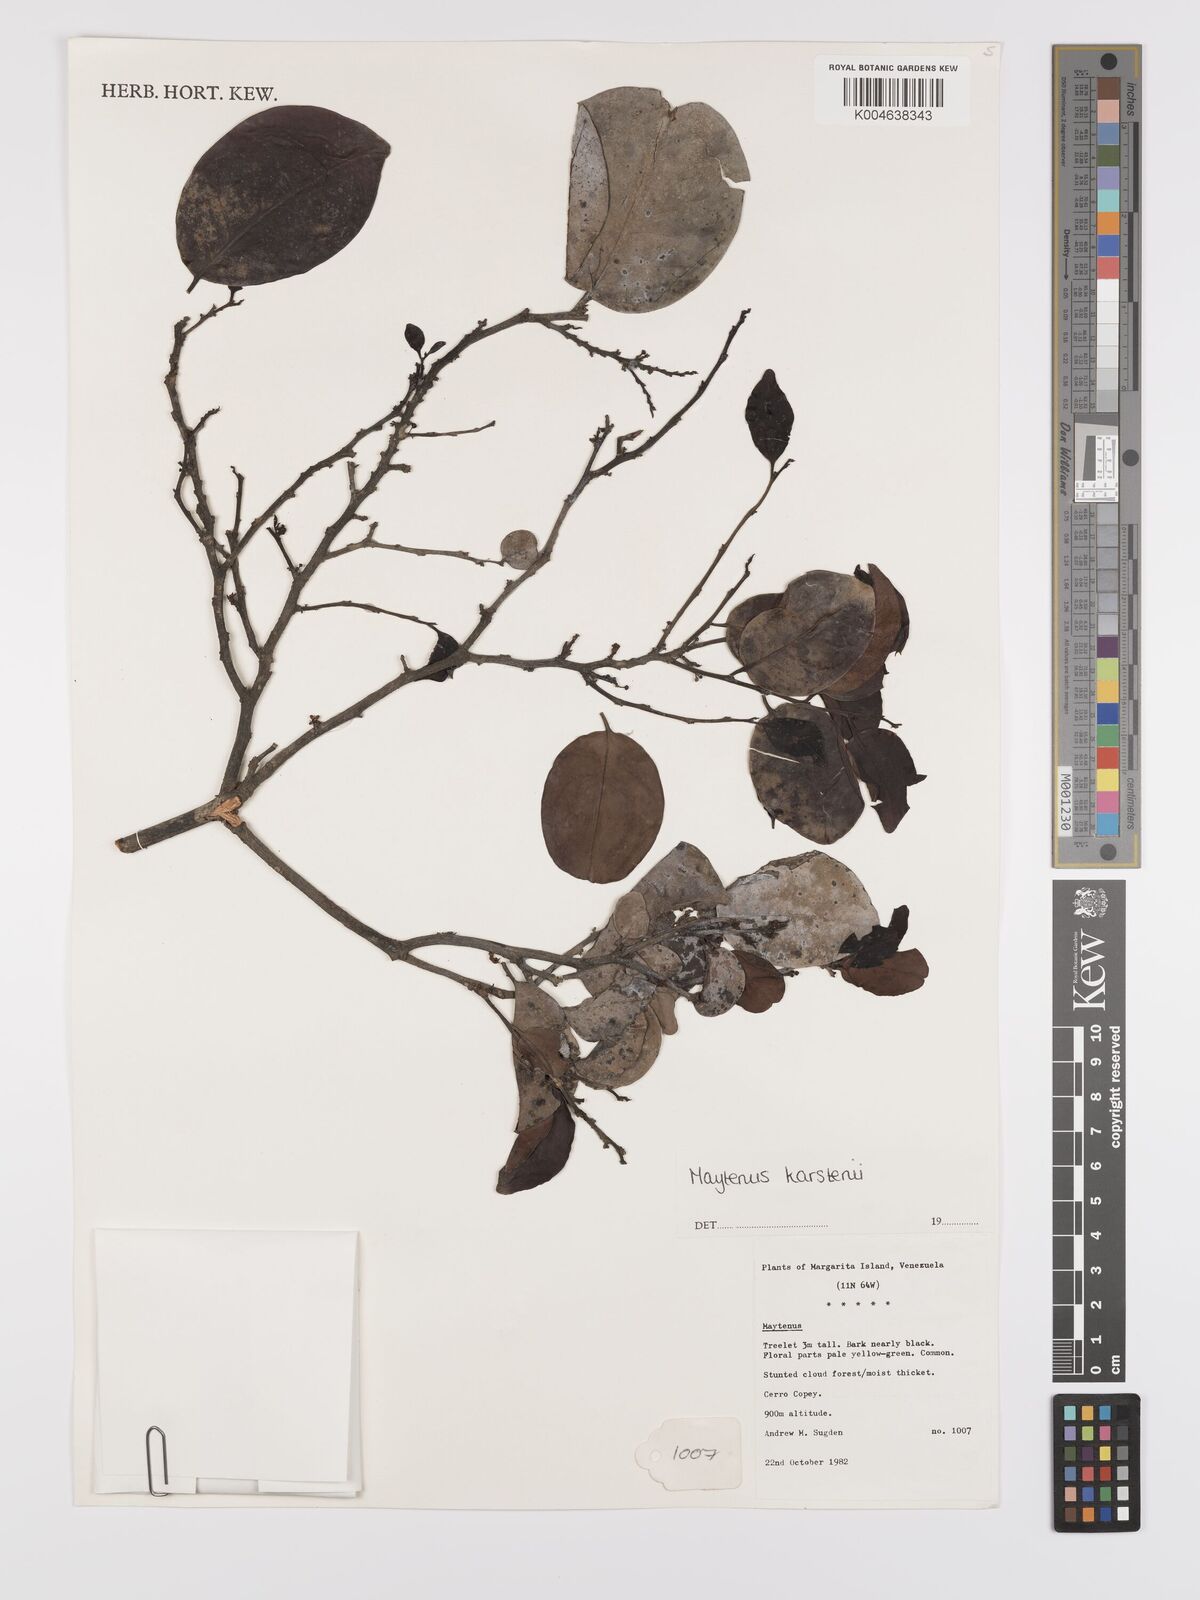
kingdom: Plantae
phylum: Tracheophyta
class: Magnoliopsida
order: Celastrales
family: Celastraceae
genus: Monteverdia
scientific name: Monteverdia karstenii
